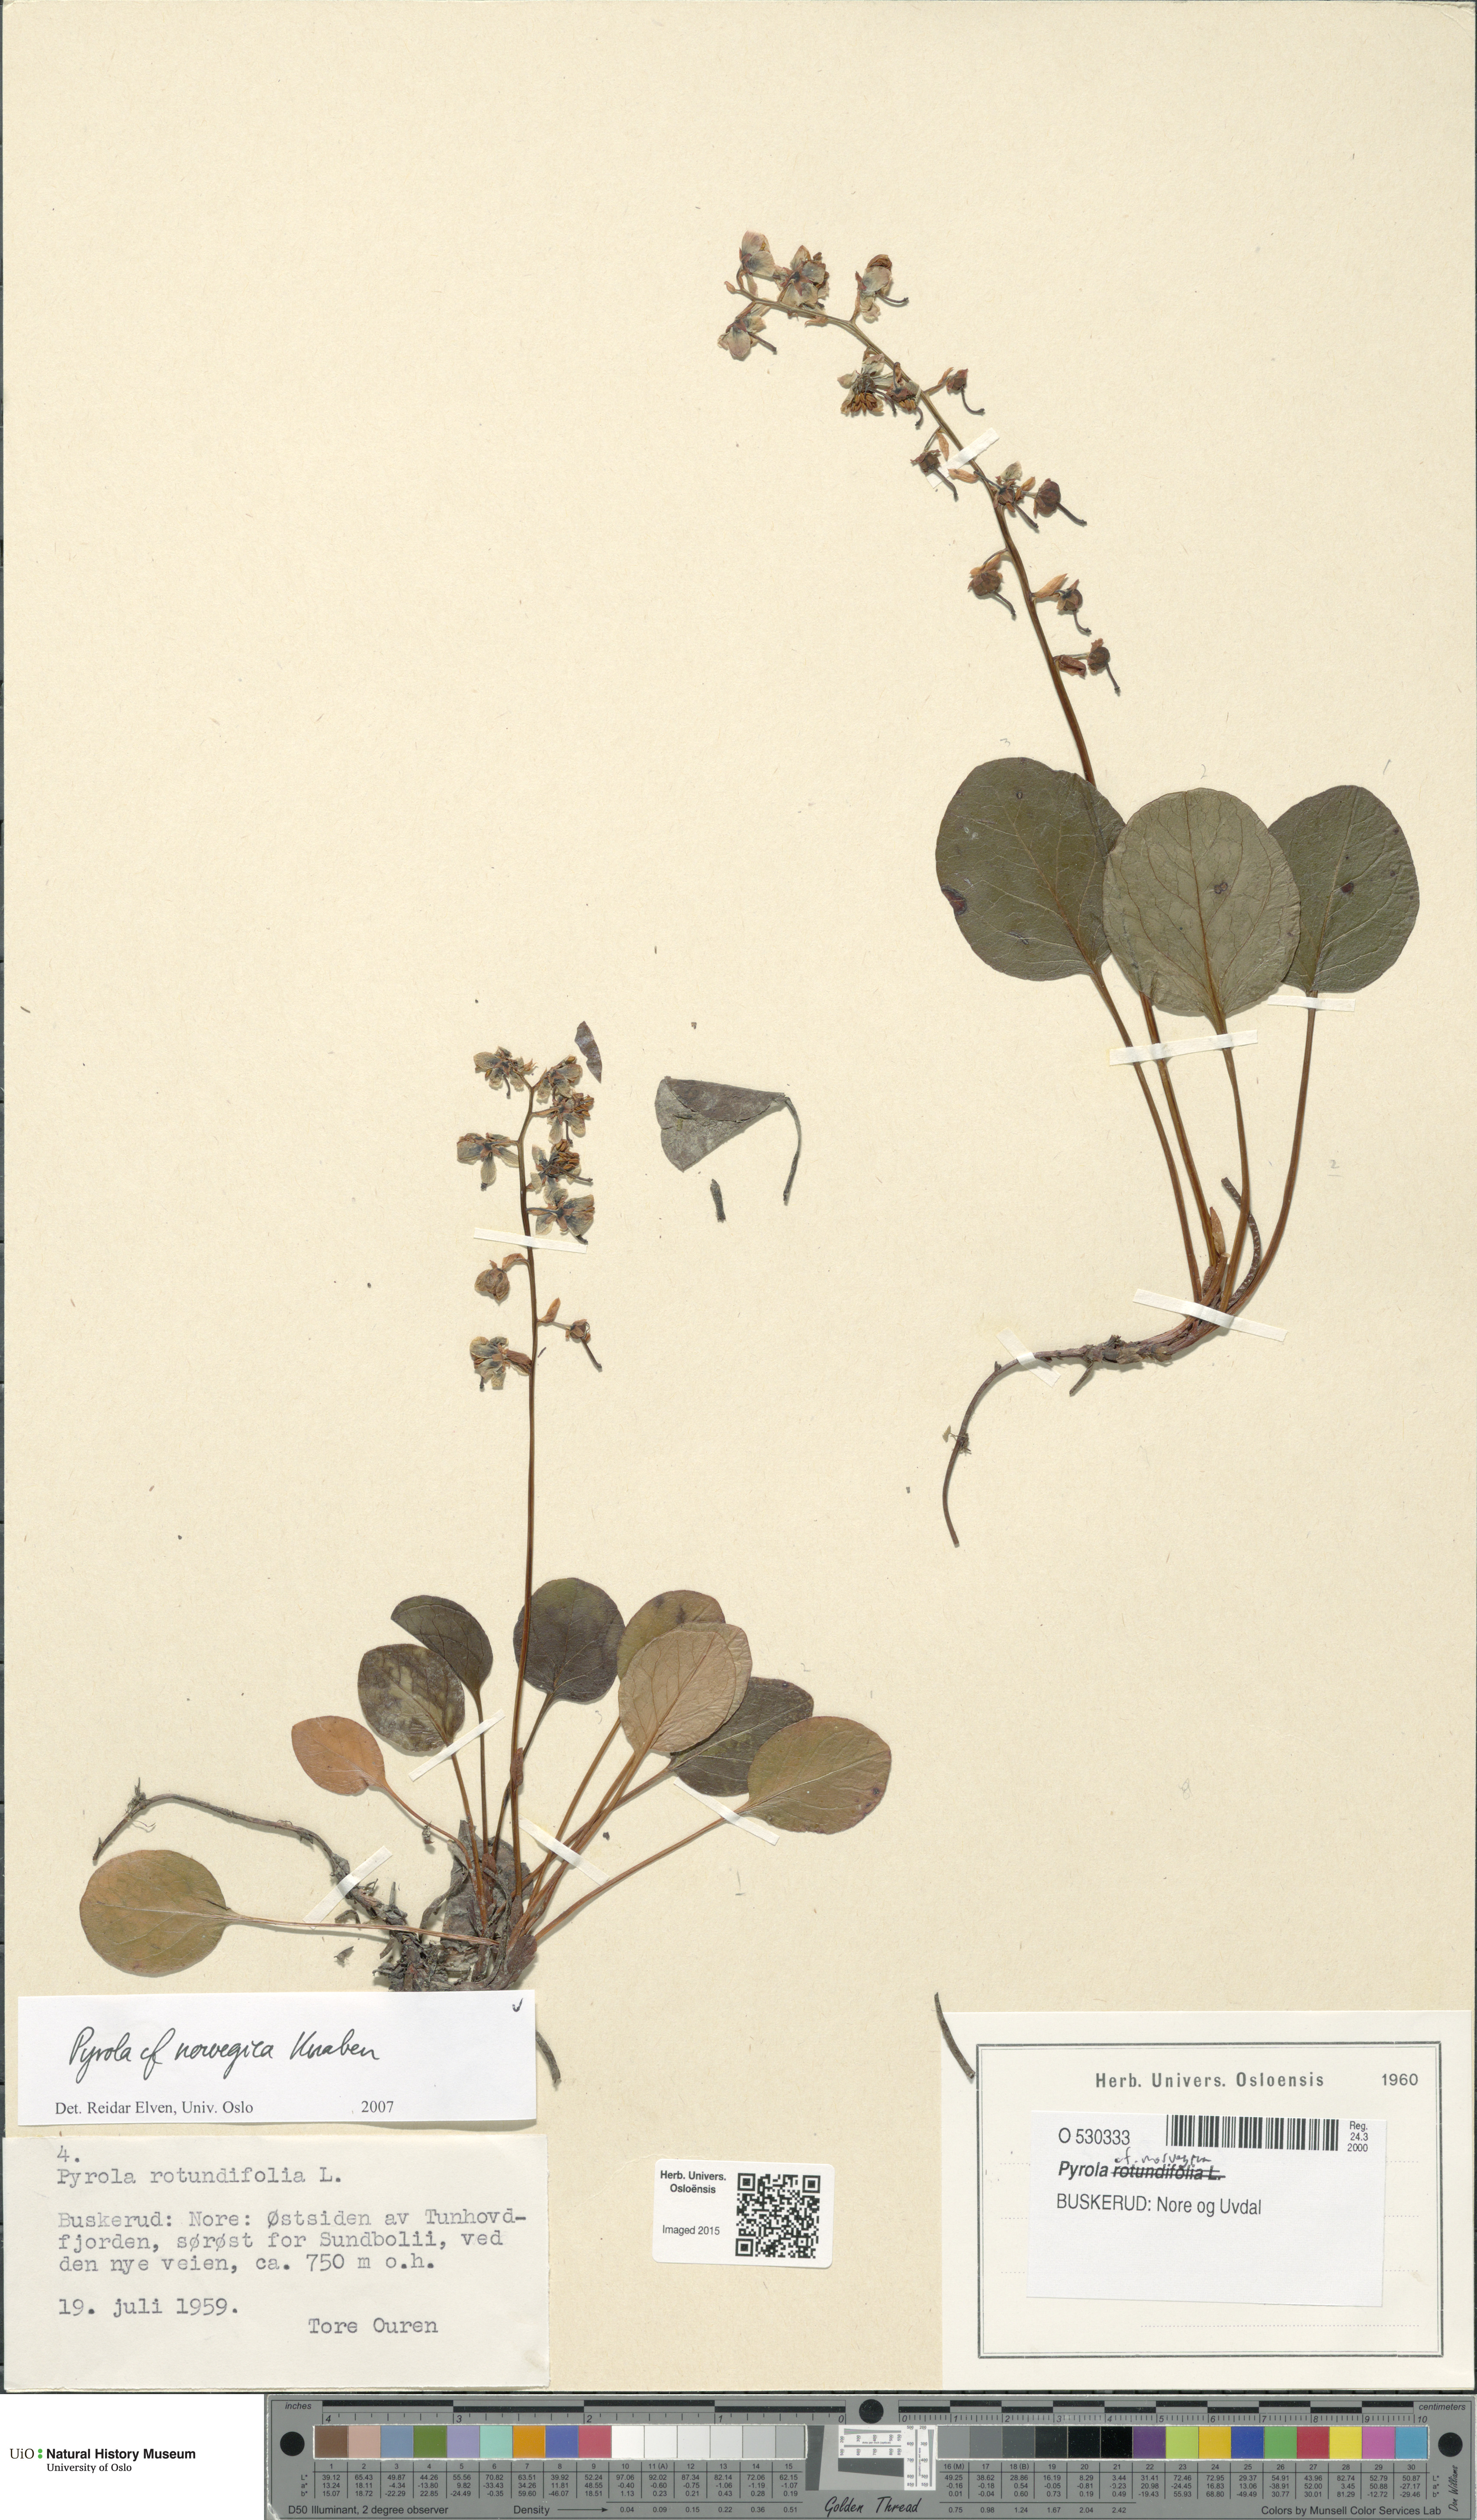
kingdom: Plantae
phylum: Tracheophyta
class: Magnoliopsida
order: Ericales
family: Ericaceae
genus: Pyrola
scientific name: Pyrola rotundifolia
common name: Round-leaved wintergreen
